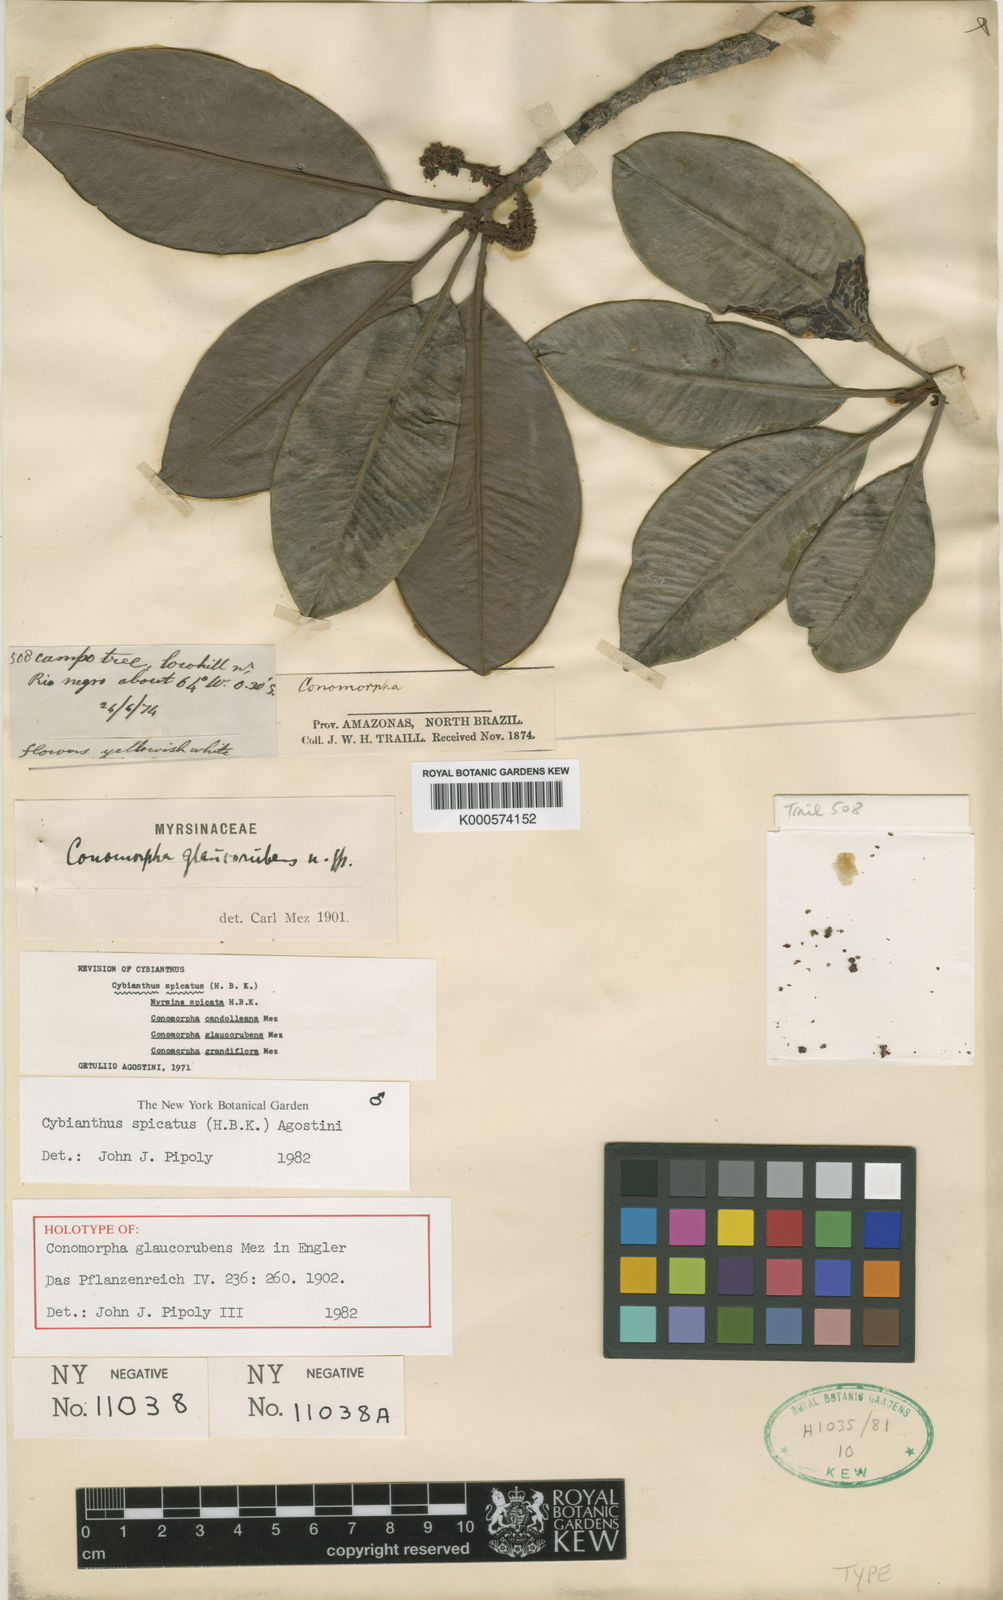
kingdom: Plantae
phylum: Tracheophyta
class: Magnoliopsida
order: Ericales
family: Primulaceae
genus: Cybianthus
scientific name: Cybianthus spicatus
